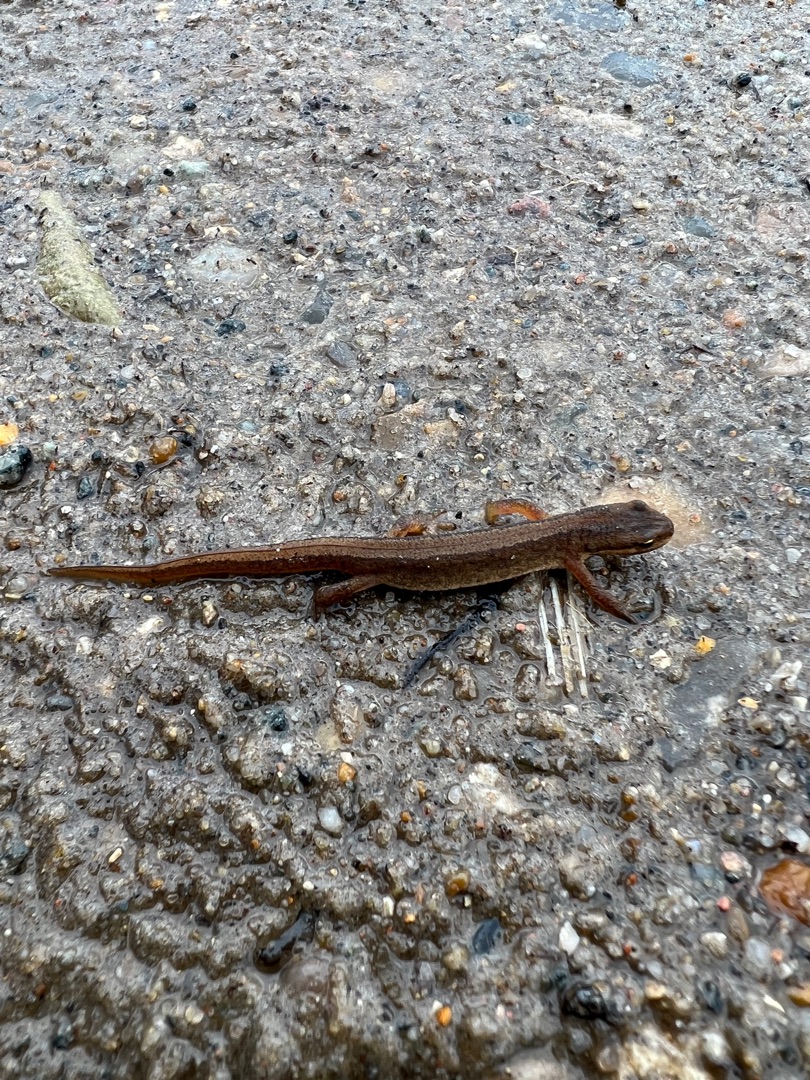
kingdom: Animalia
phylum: Chordata
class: Amphibia
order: Caudata
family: Salamandridae
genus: Lissotriton
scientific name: Lissotriton vulgaris
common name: Lille vandsalamander
